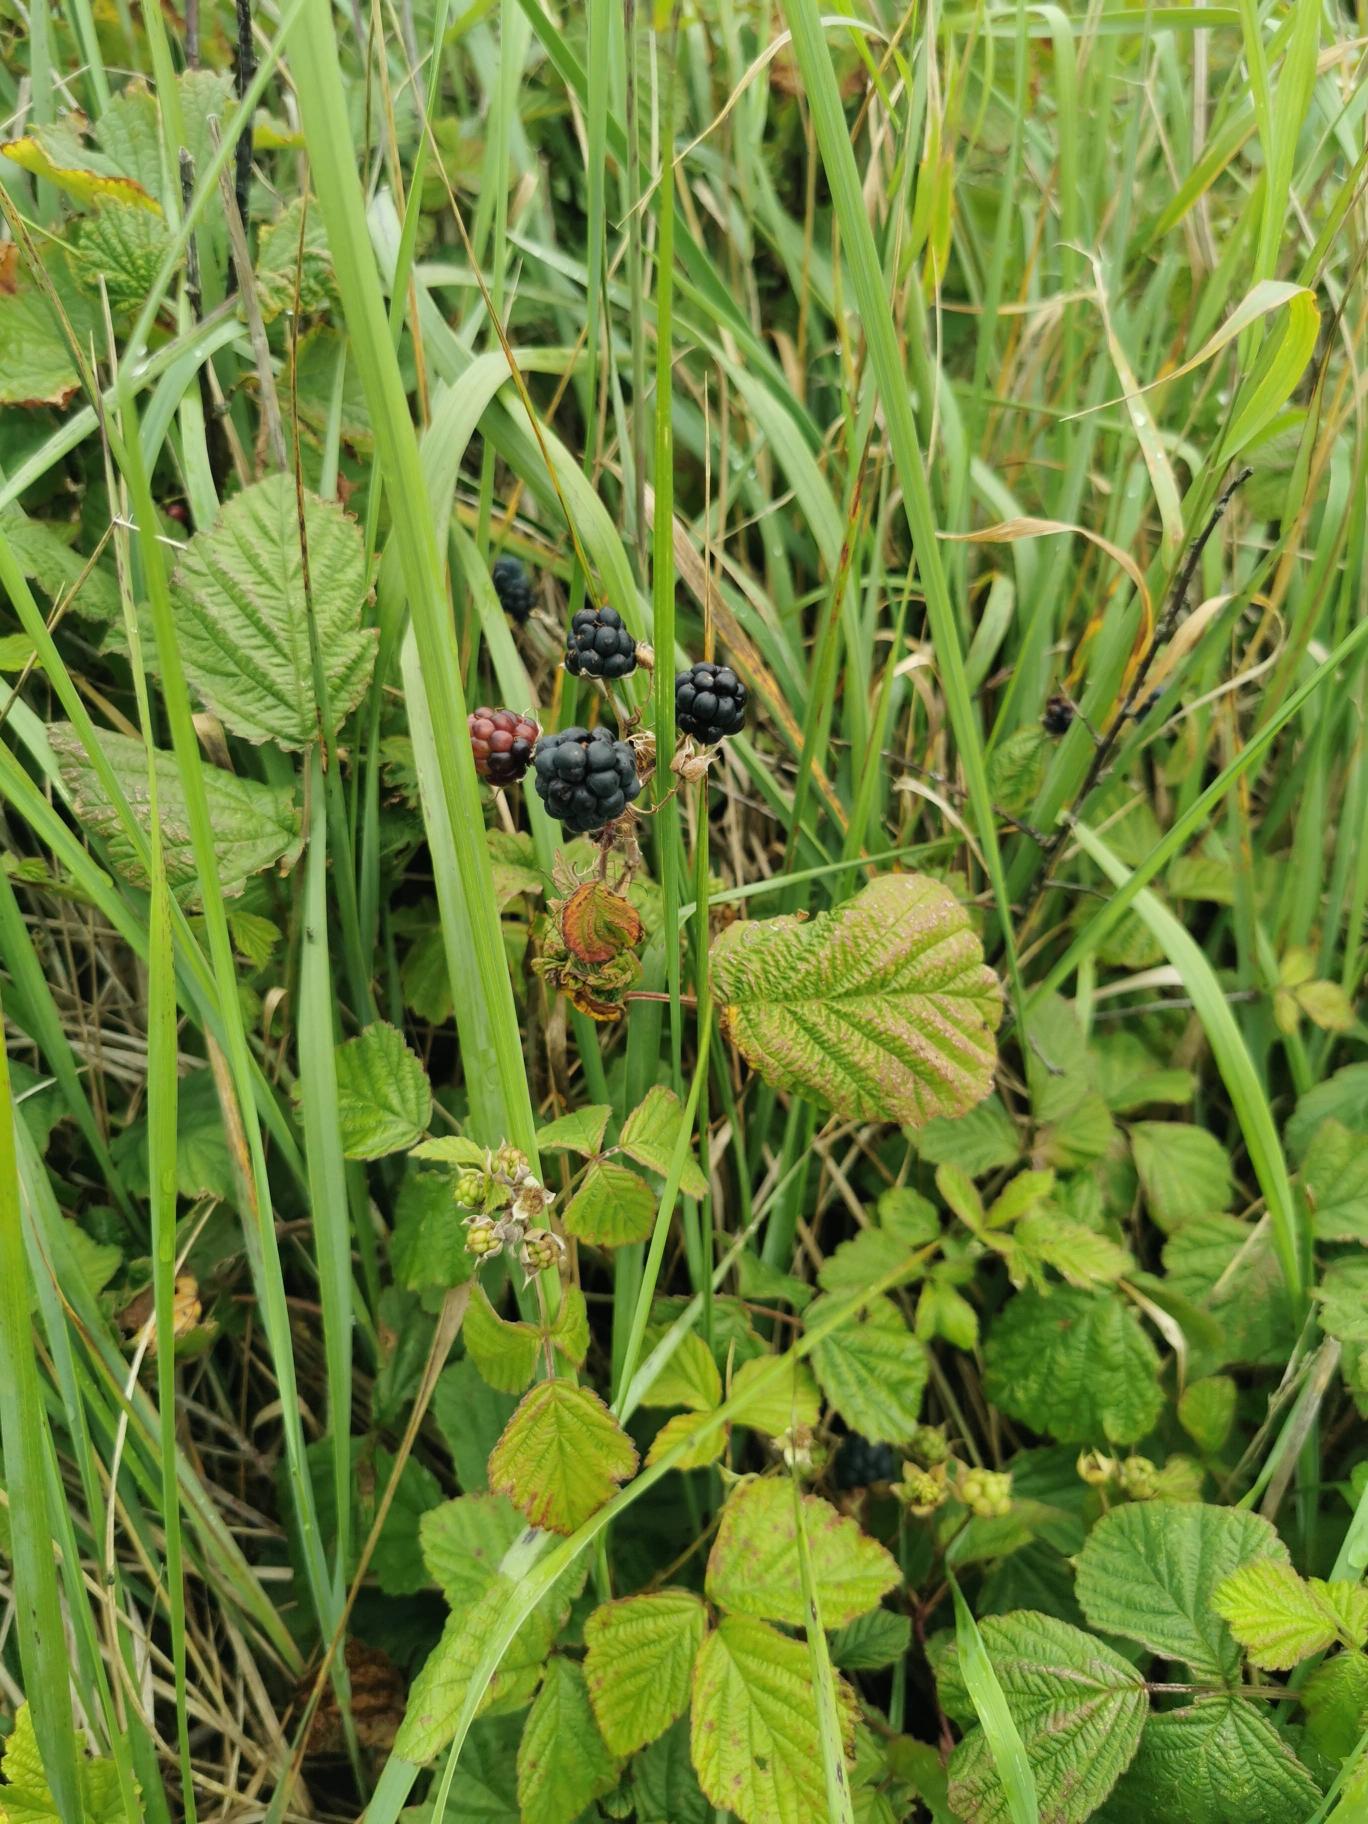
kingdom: Plantae
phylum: Tracheophyta
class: Magnoliopsida
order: Rosales
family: Rosaceae
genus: Rubus
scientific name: Rubus
